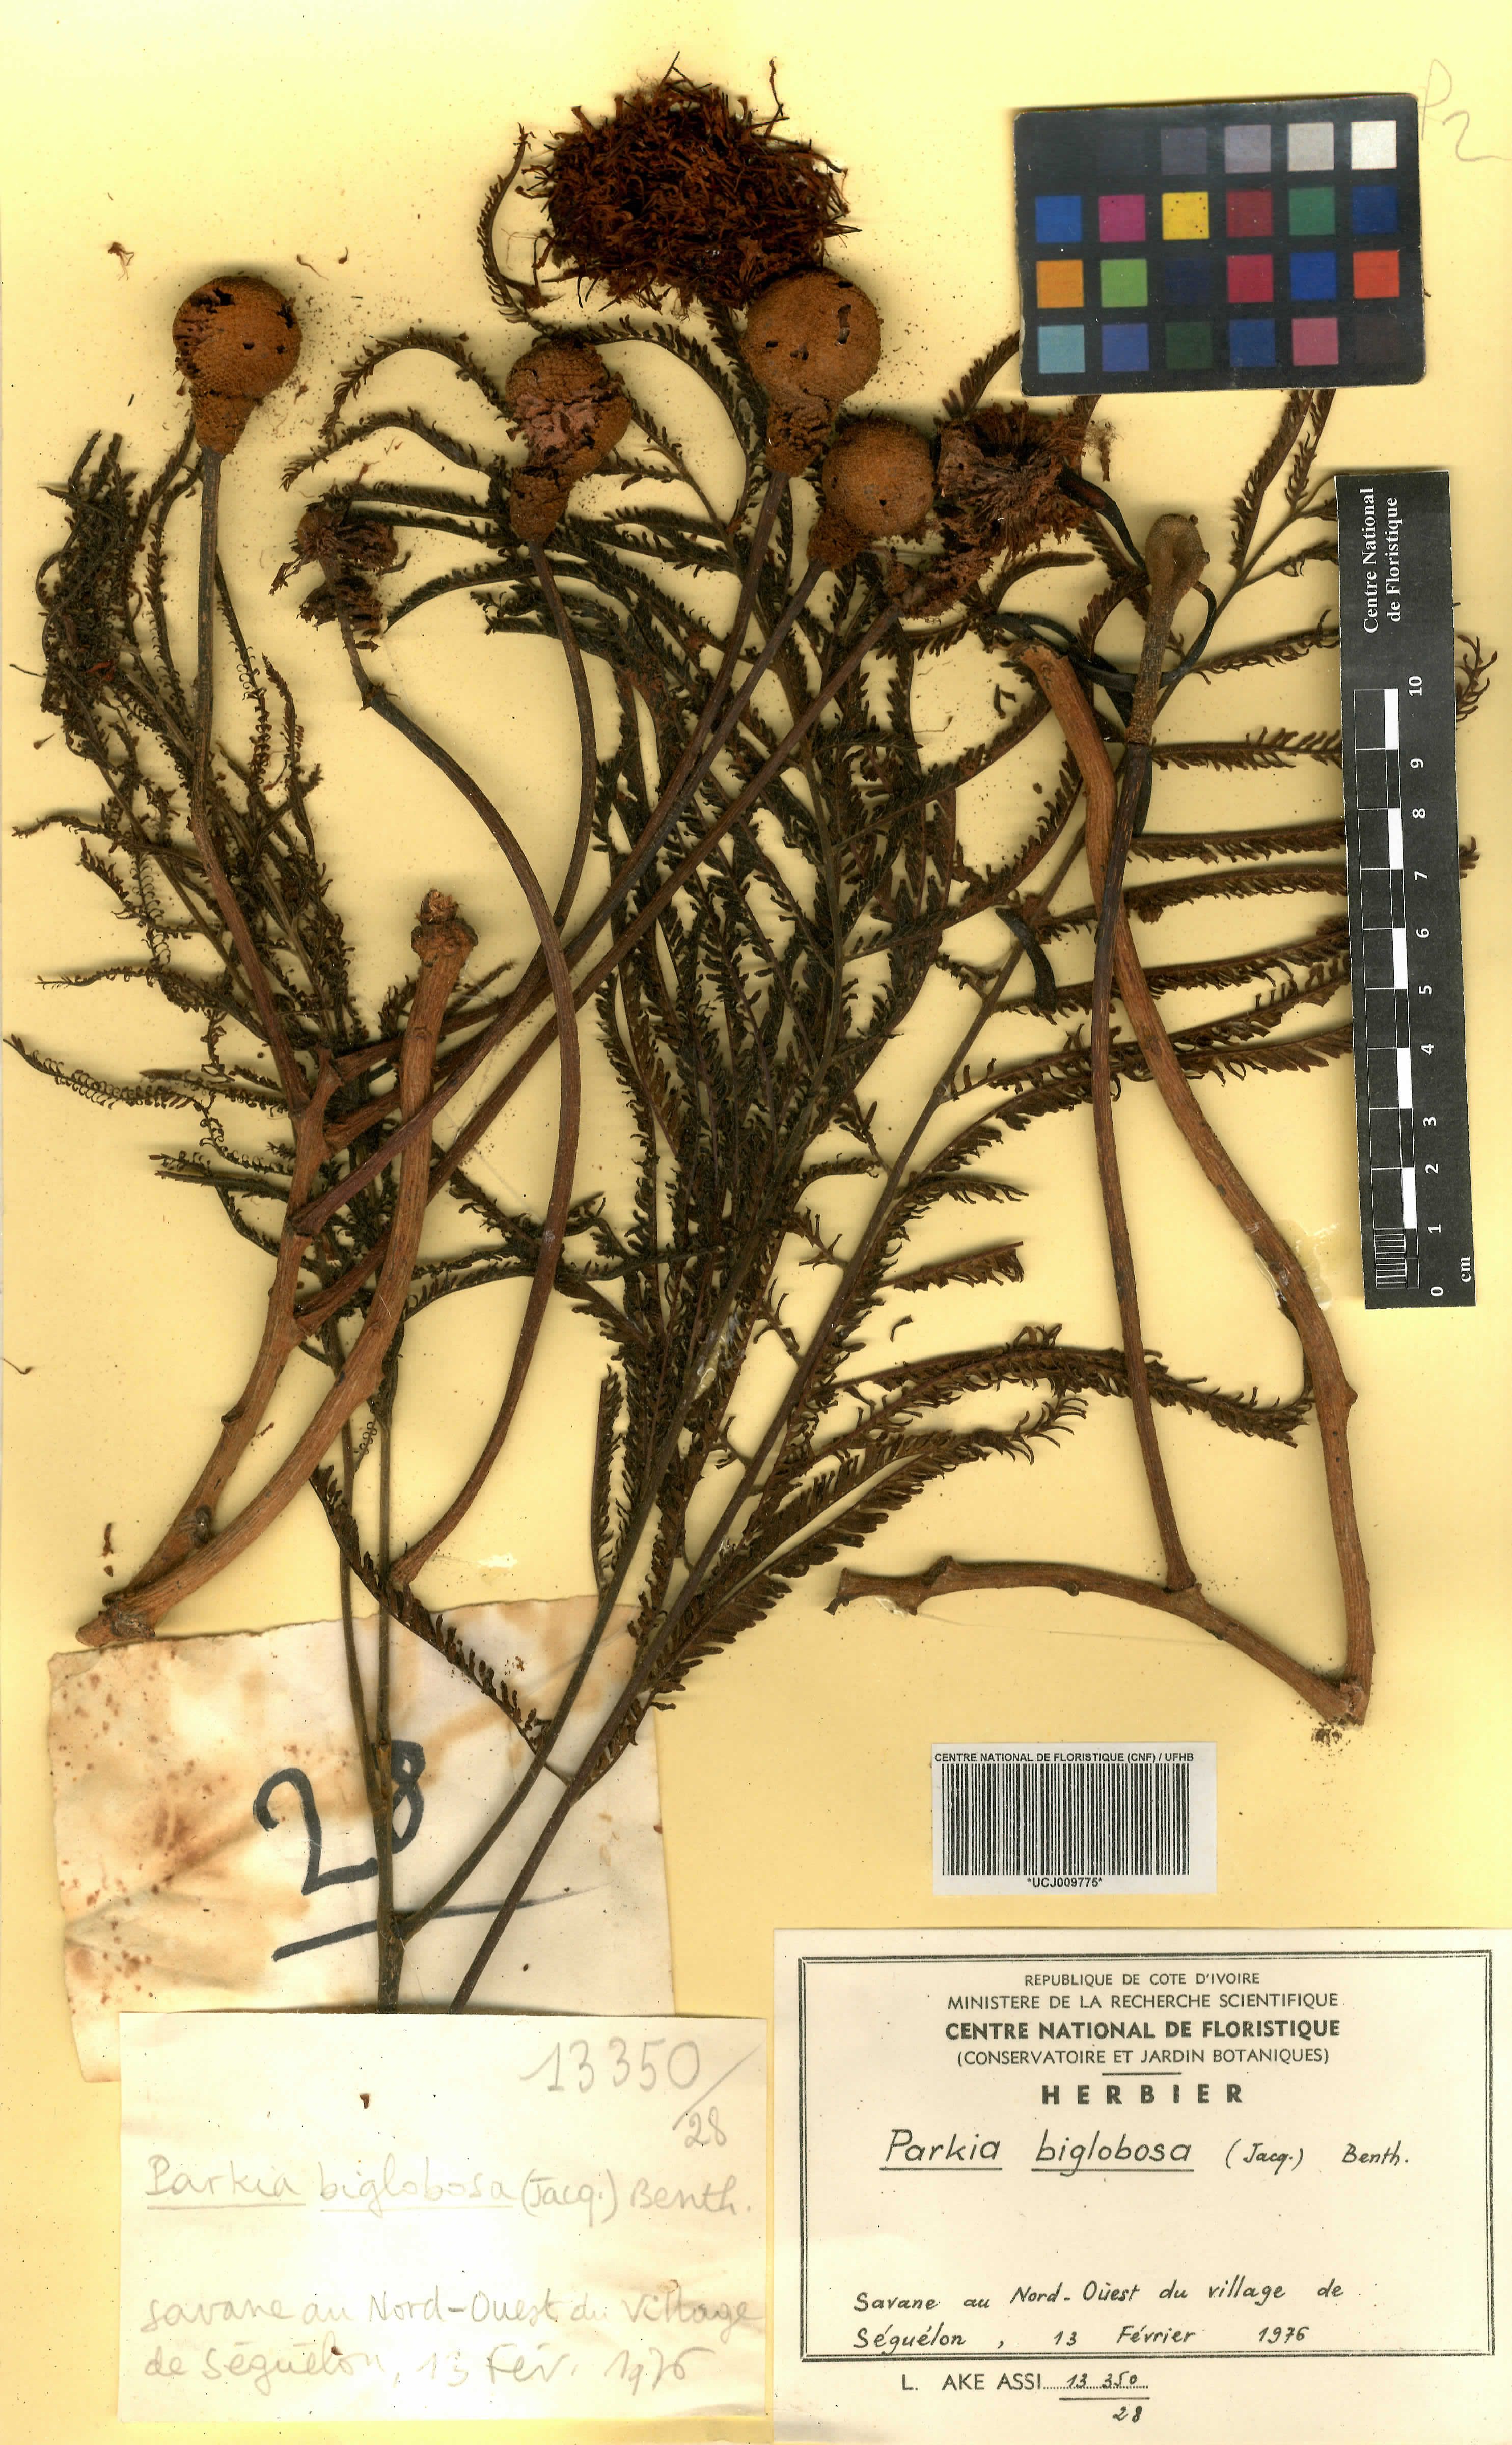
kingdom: Plantae
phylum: Tracheophyta
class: Magnoliopsida
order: Fabales
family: Fabaceae
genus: Parkia
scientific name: Parkia timoriana
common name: Legume
